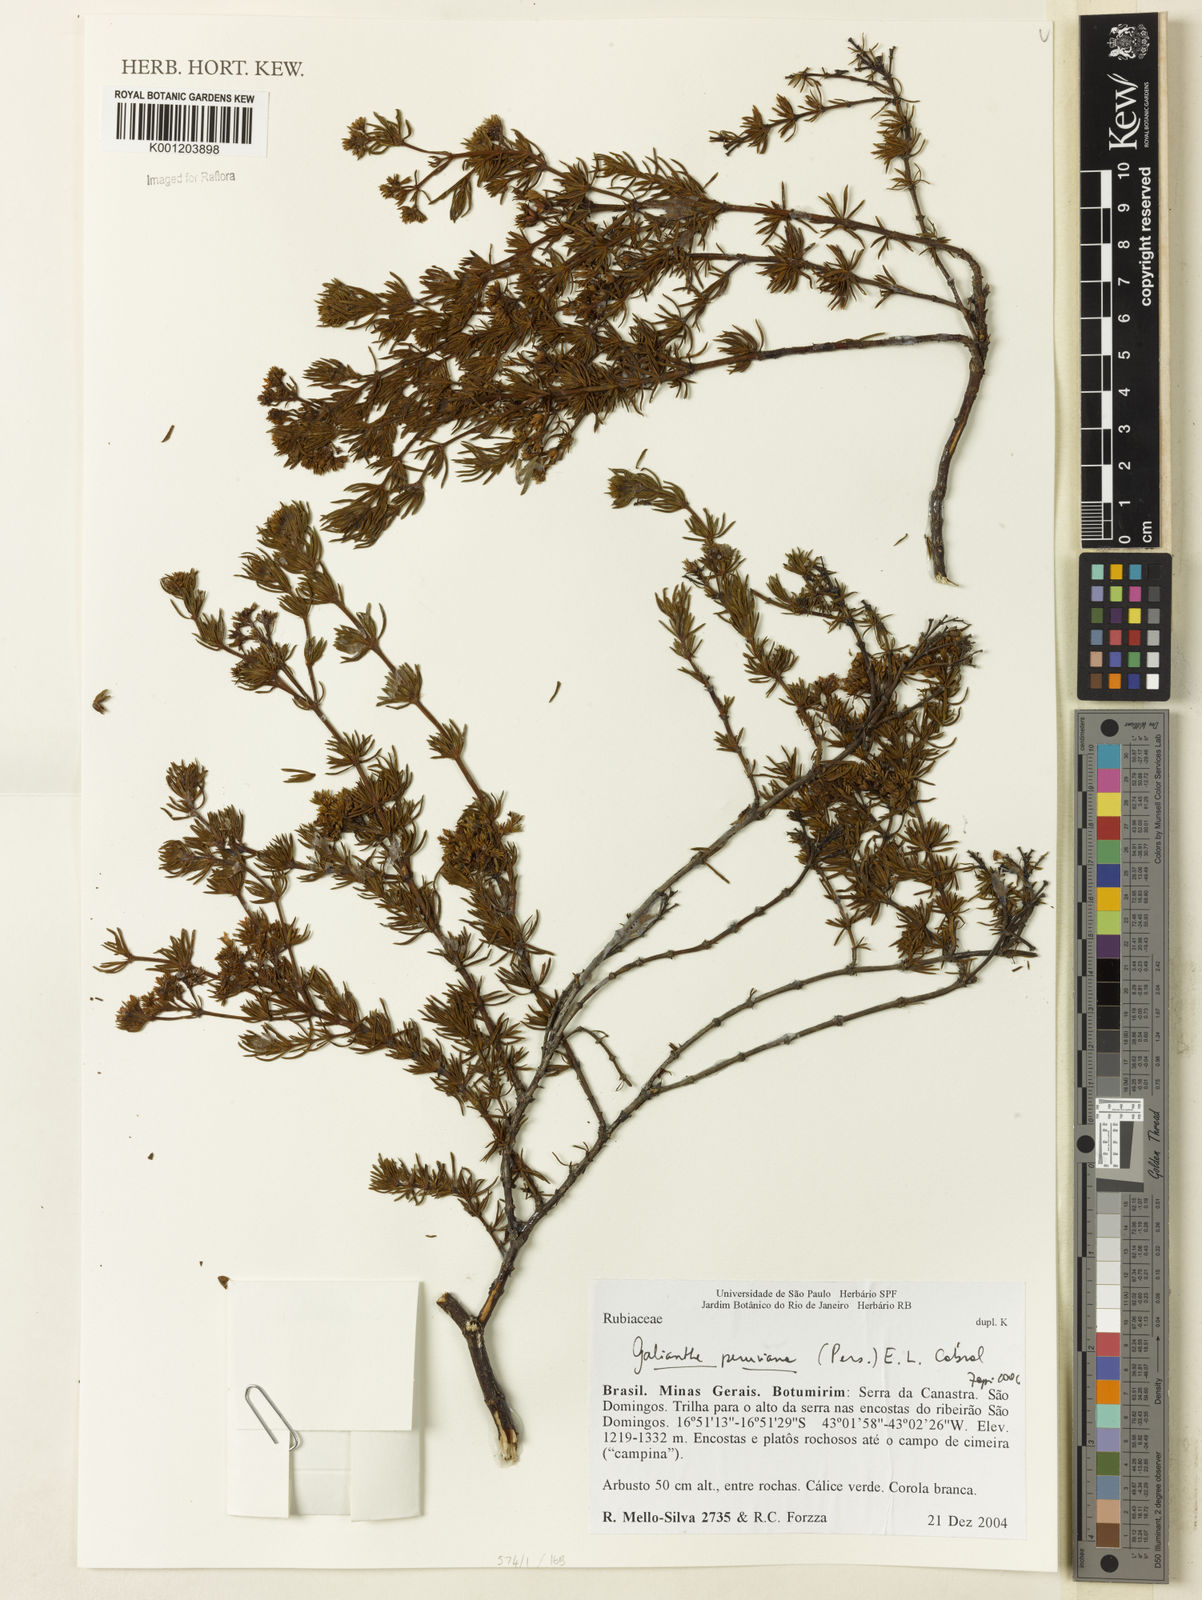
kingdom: Plantae
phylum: Tracheophyta
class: Magnoliopsida
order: Gentianales
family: Rubiaceae
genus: Galianthe
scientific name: Galianthe peruviana
